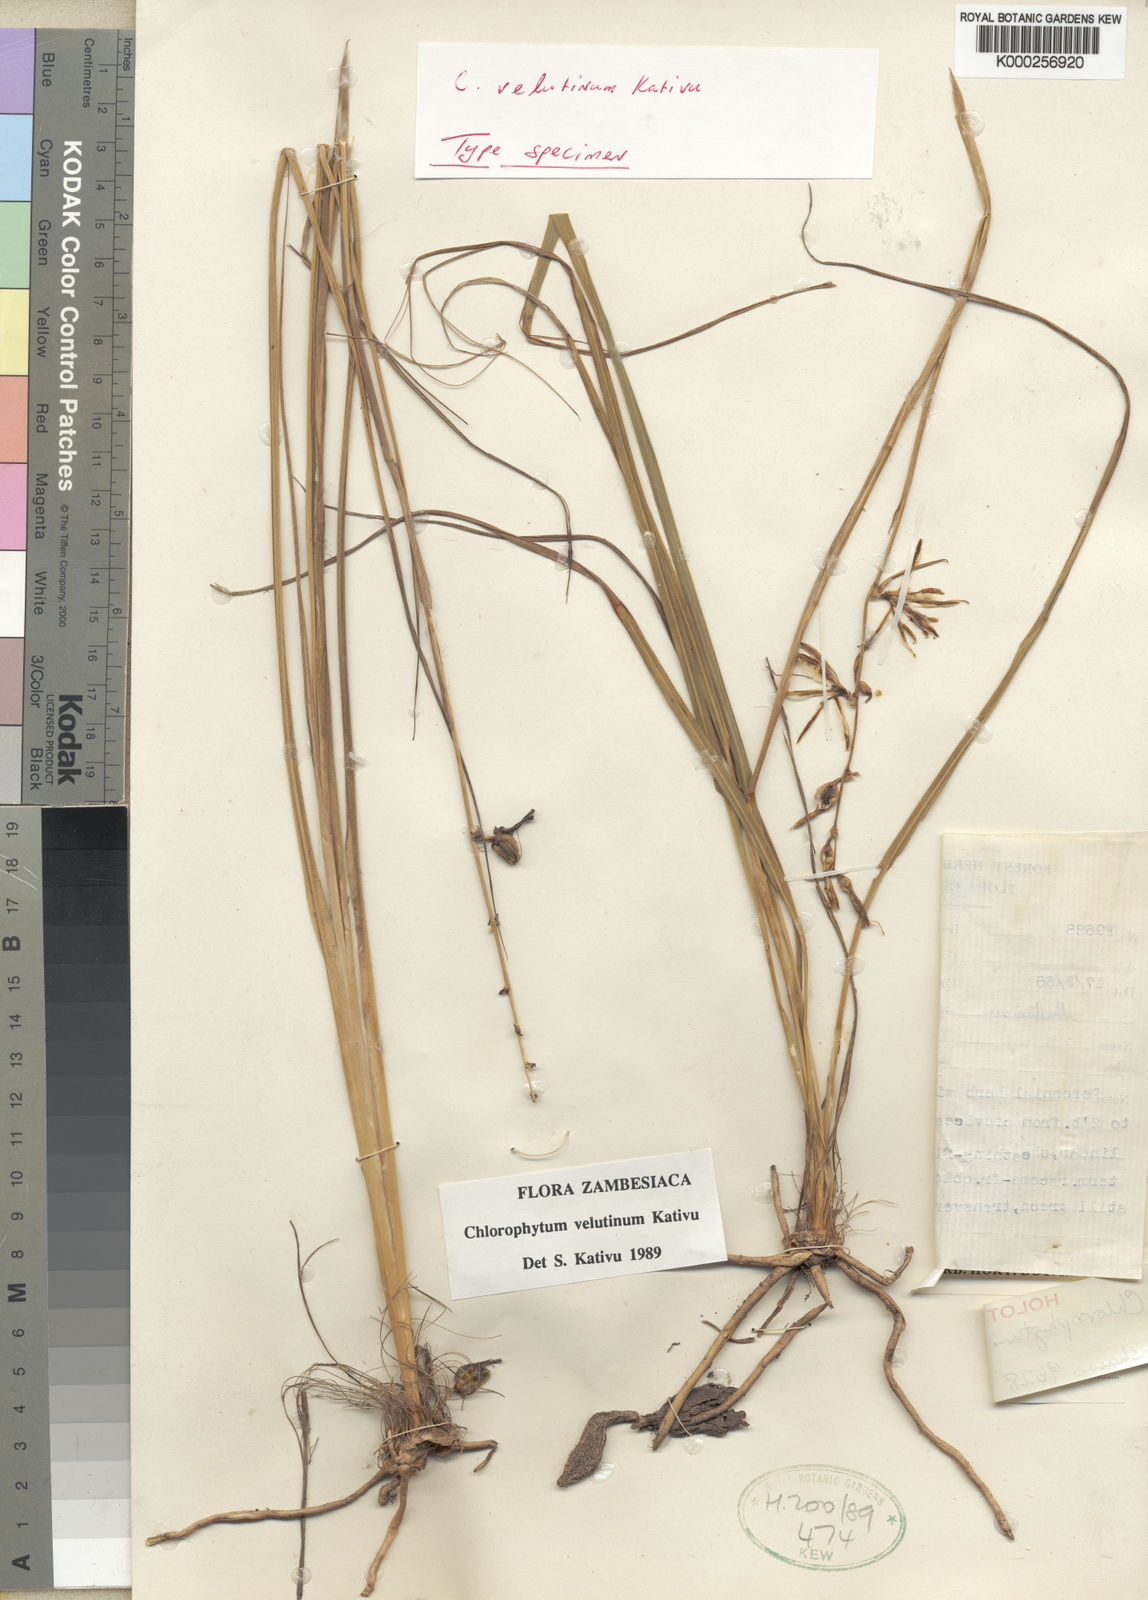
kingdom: Plantae
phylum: Tracheophyta
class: Liliopsida
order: Asparagales
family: Asparagaceae
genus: Chlorophytum
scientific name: Chlorophytum velutinum
